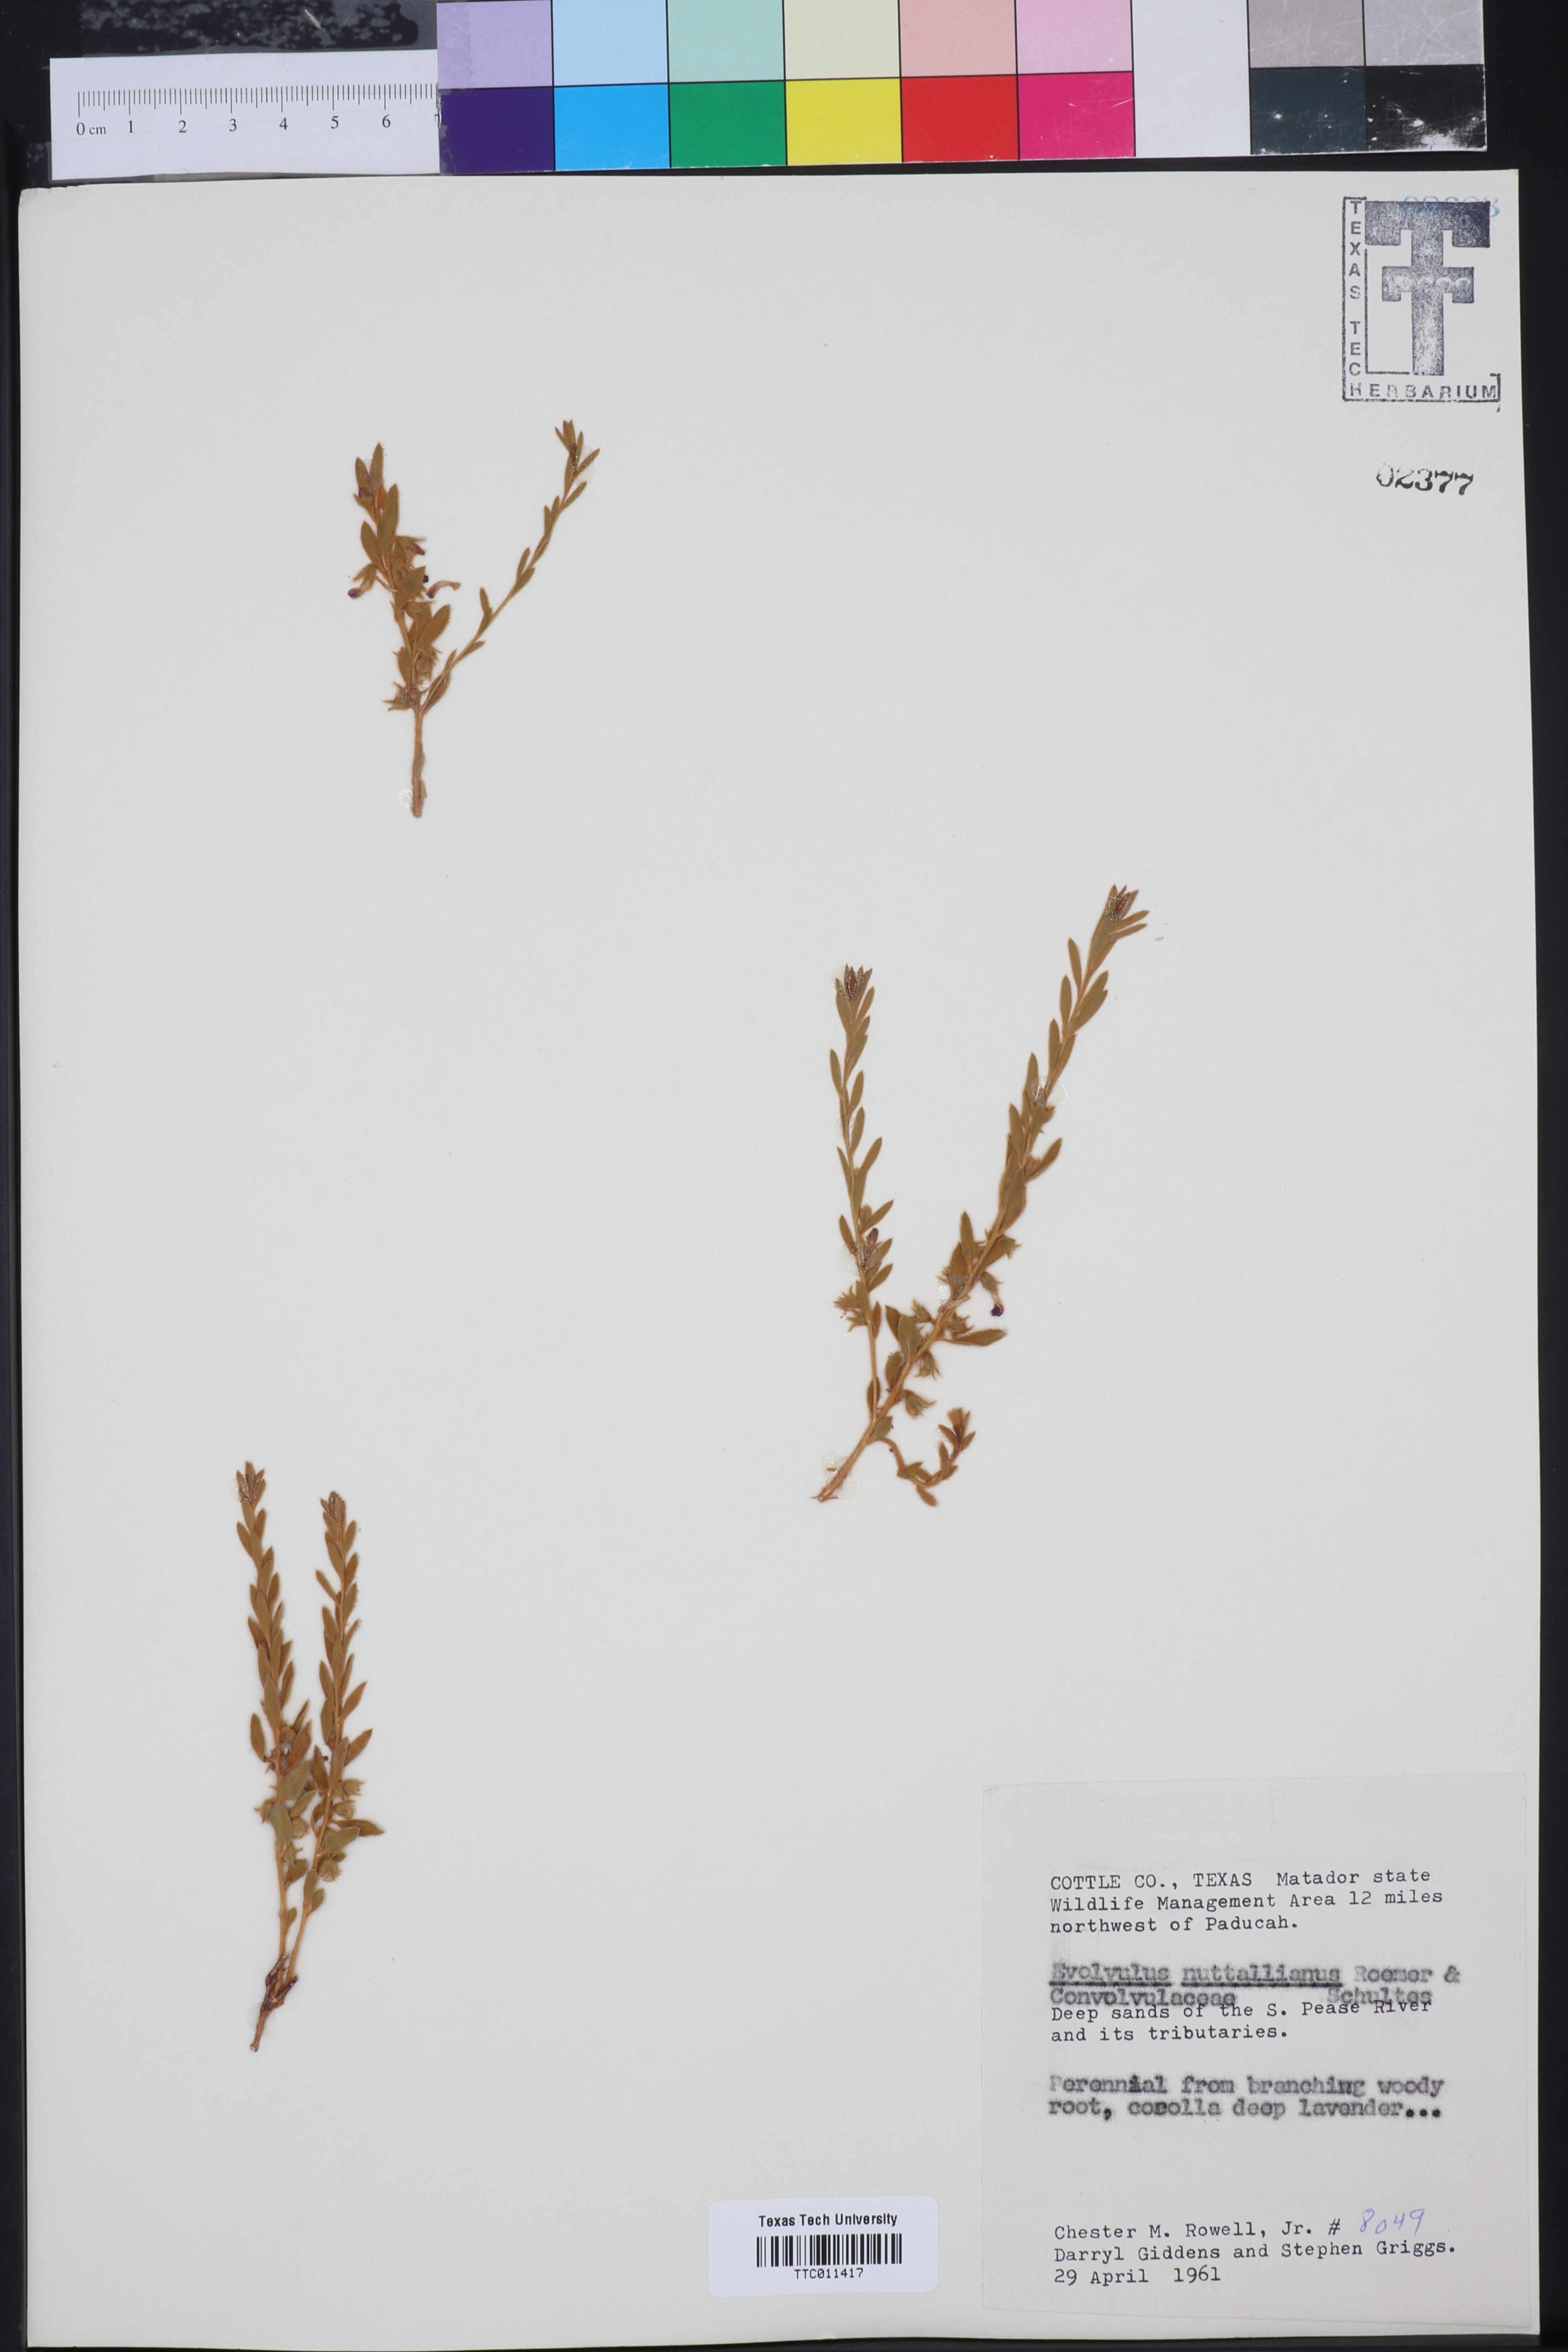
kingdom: Plantae
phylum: Tracheophyta
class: Magnoliopsida
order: Solanales
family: Convolvulaceae
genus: Evolvulus
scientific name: Evolvulus nuttallianus
